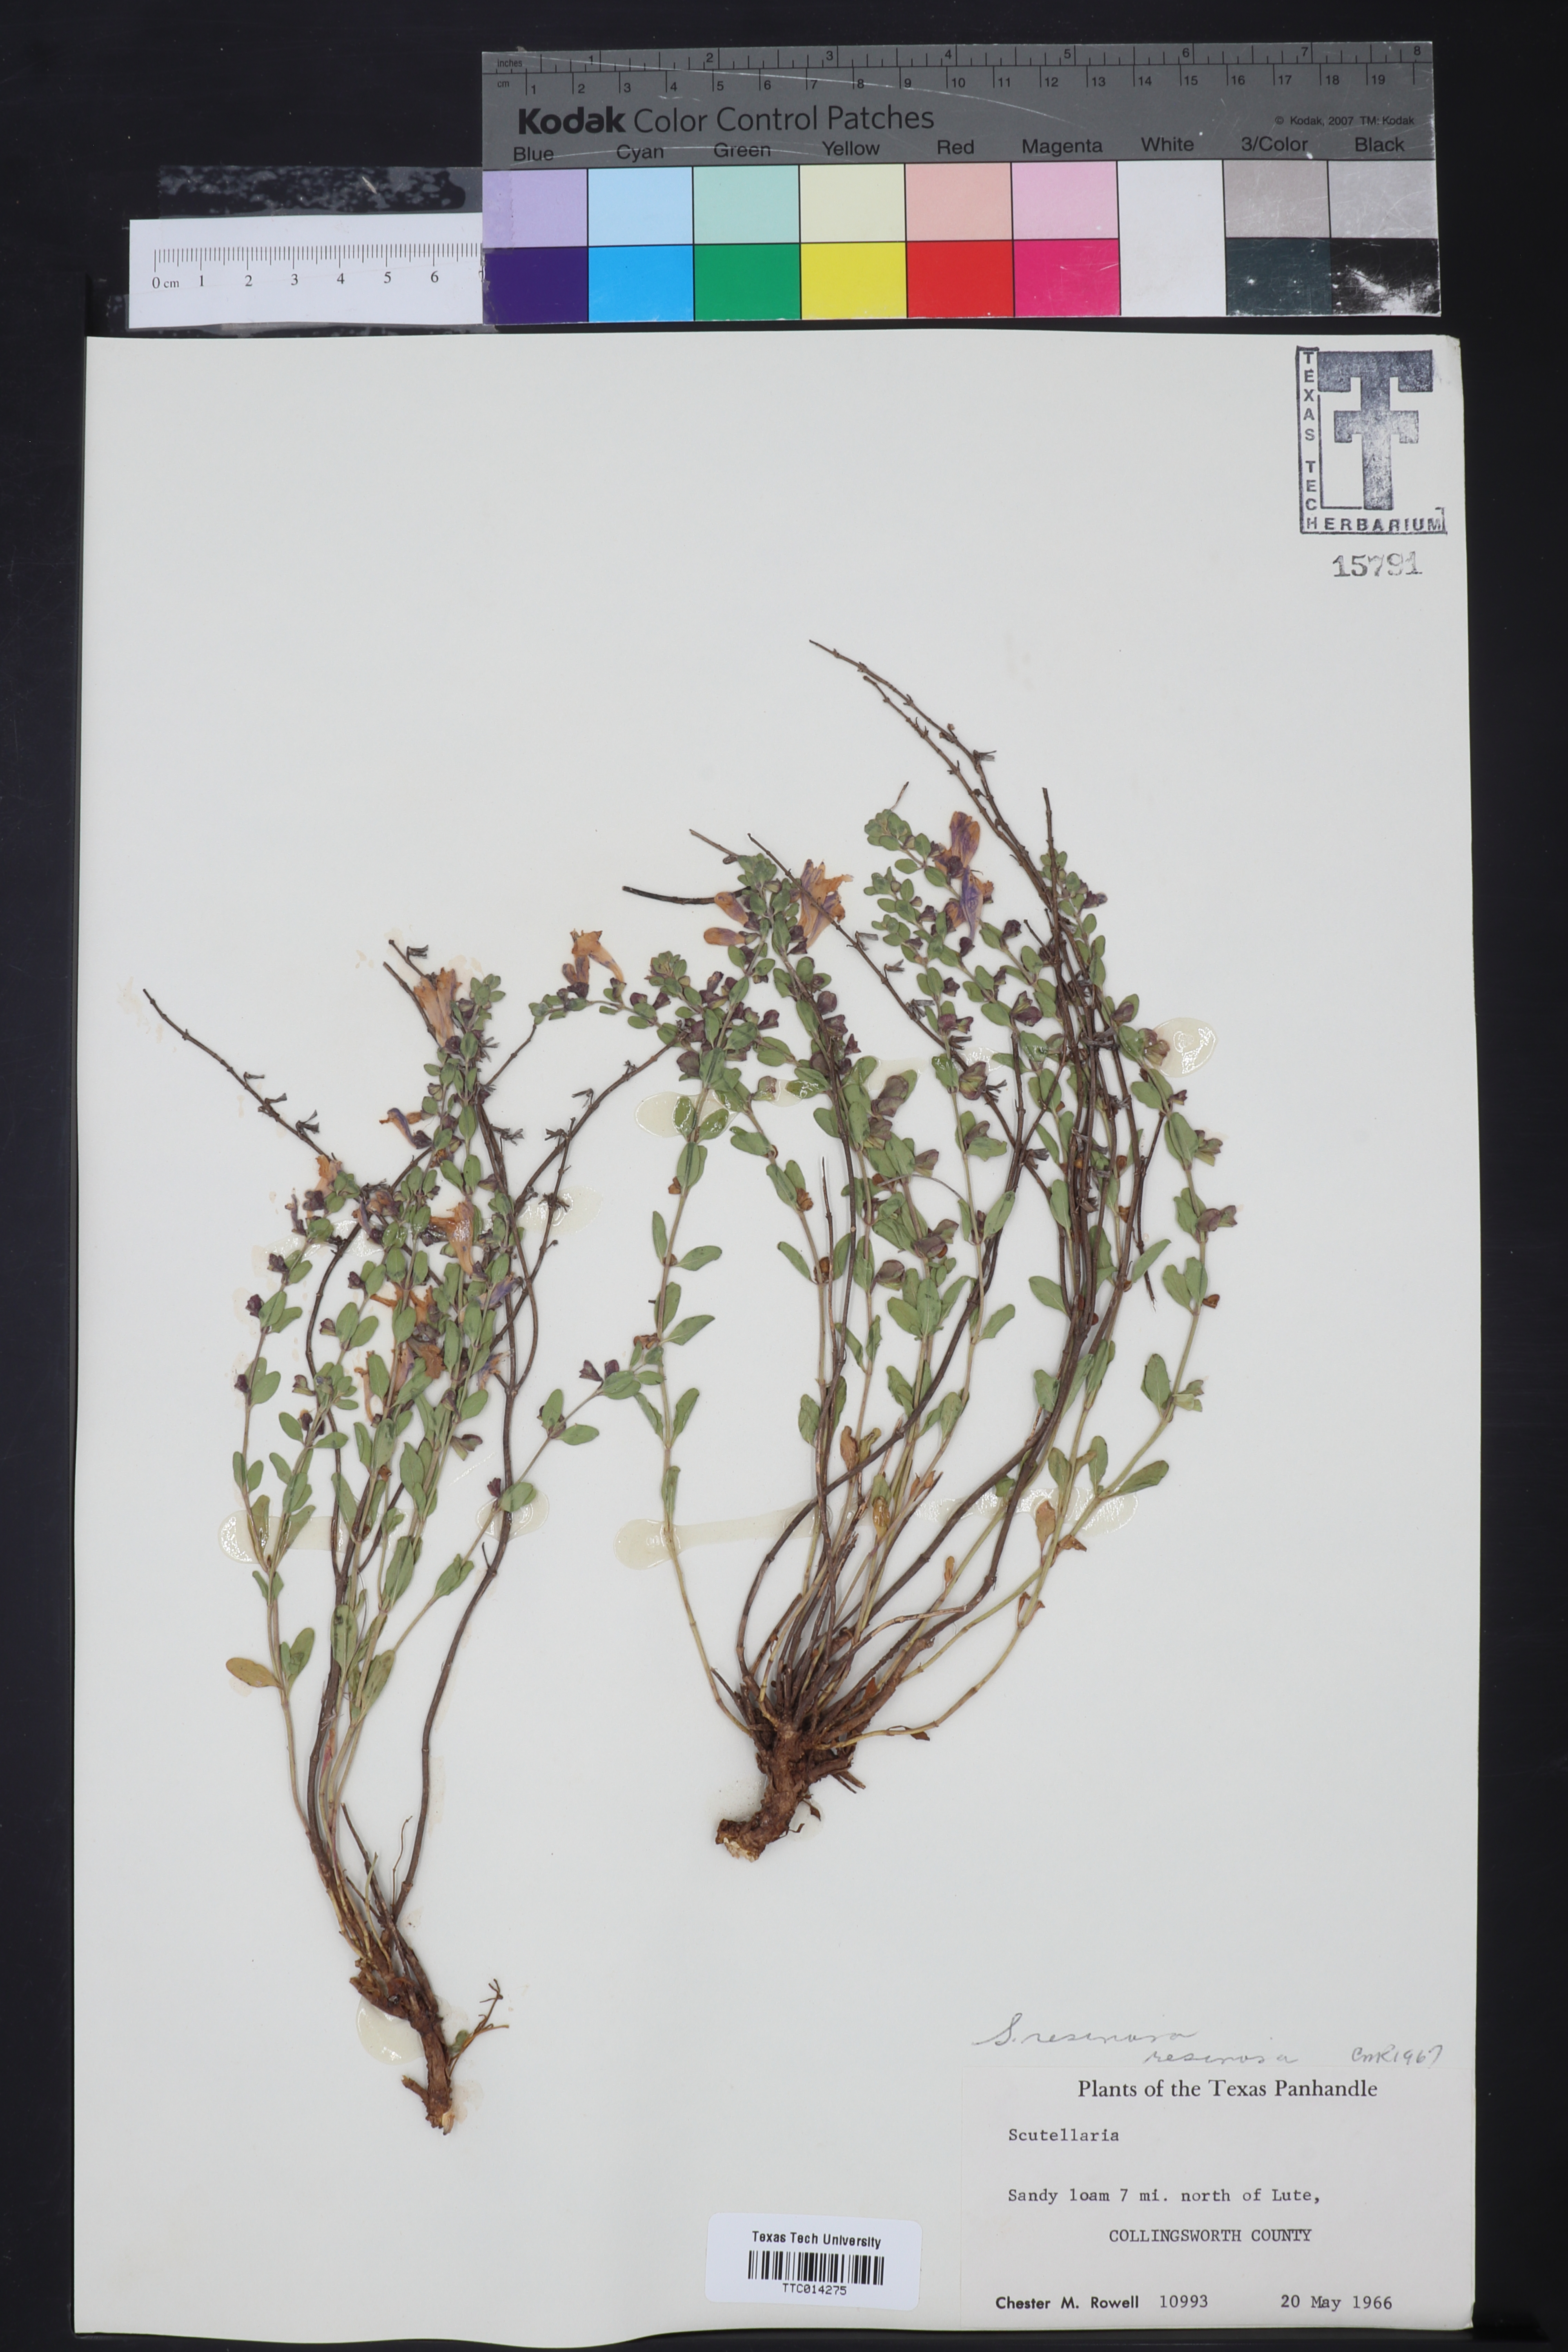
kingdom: Plantae
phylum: Tracheophyta
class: Magnoliopsida
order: Lamiales
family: Lamiaceae
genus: Scutellaria
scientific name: Scutellaria resinosa
